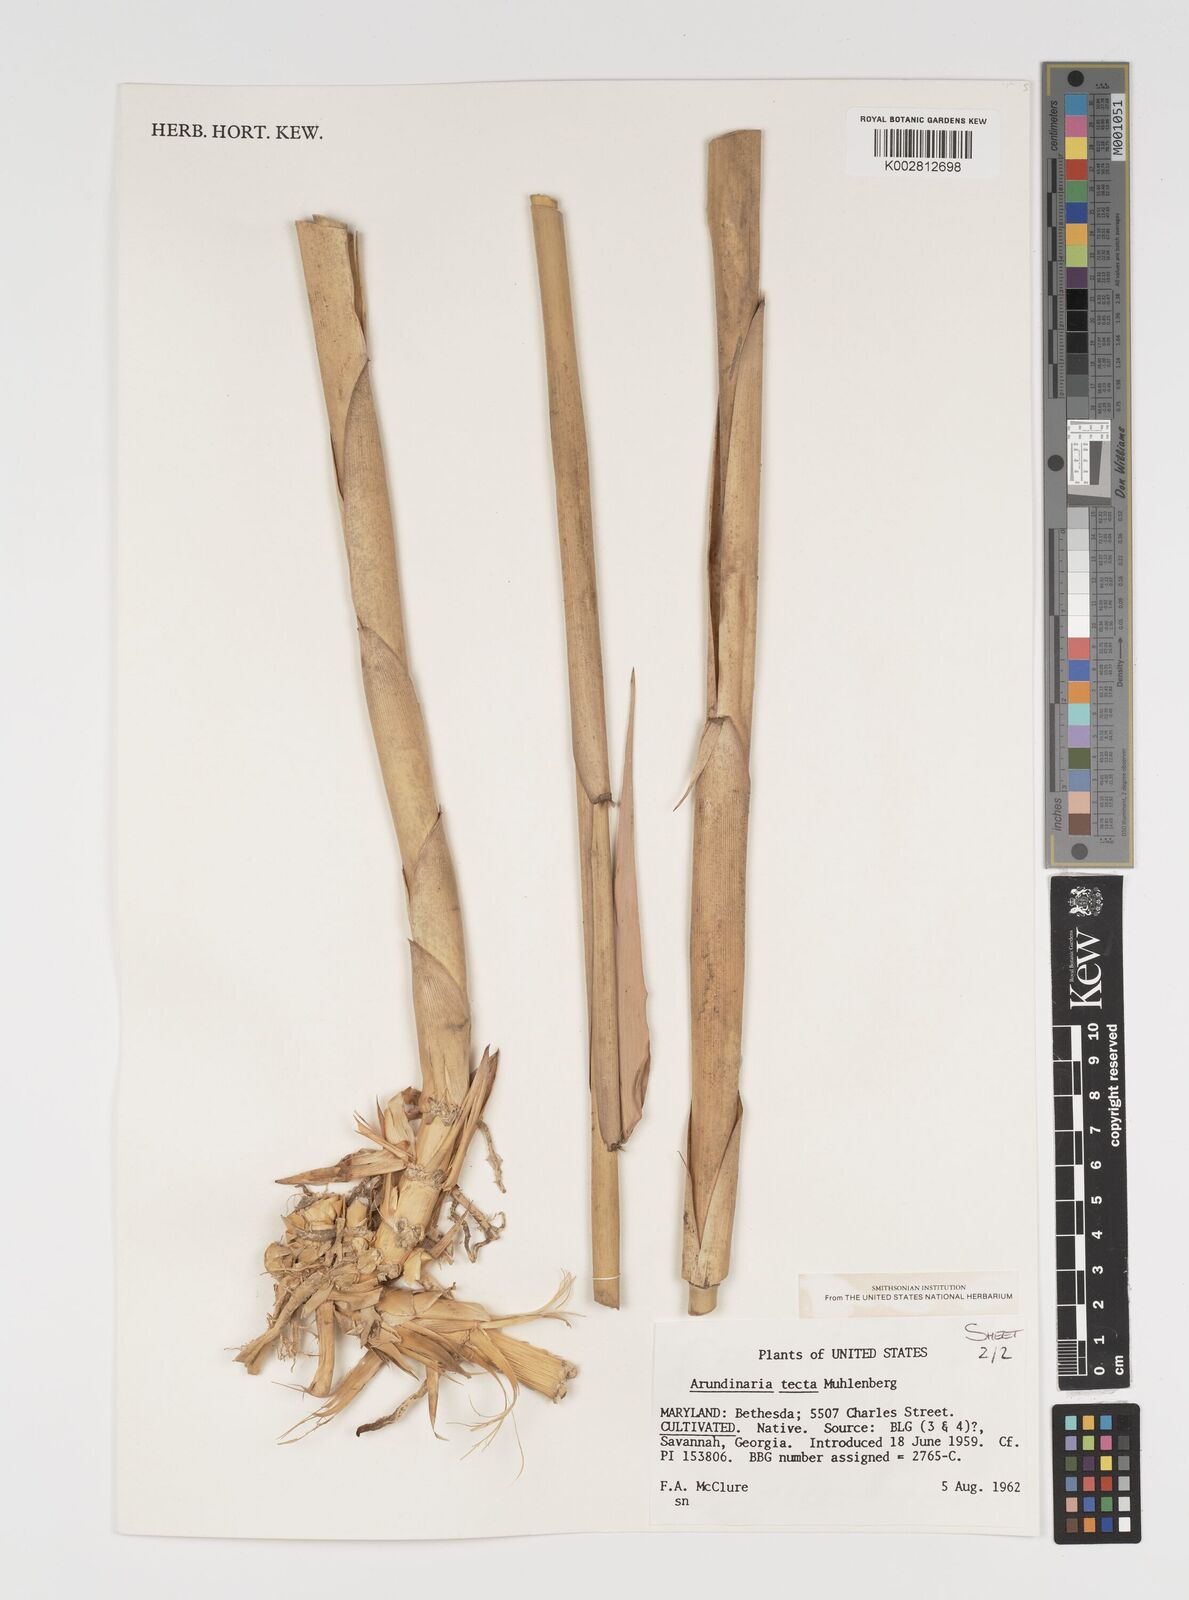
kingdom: Plantae
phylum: Tracheophyta
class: Liliopsida
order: Poales
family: Poaceae
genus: Arundinaria
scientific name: Arundinaria tecta
